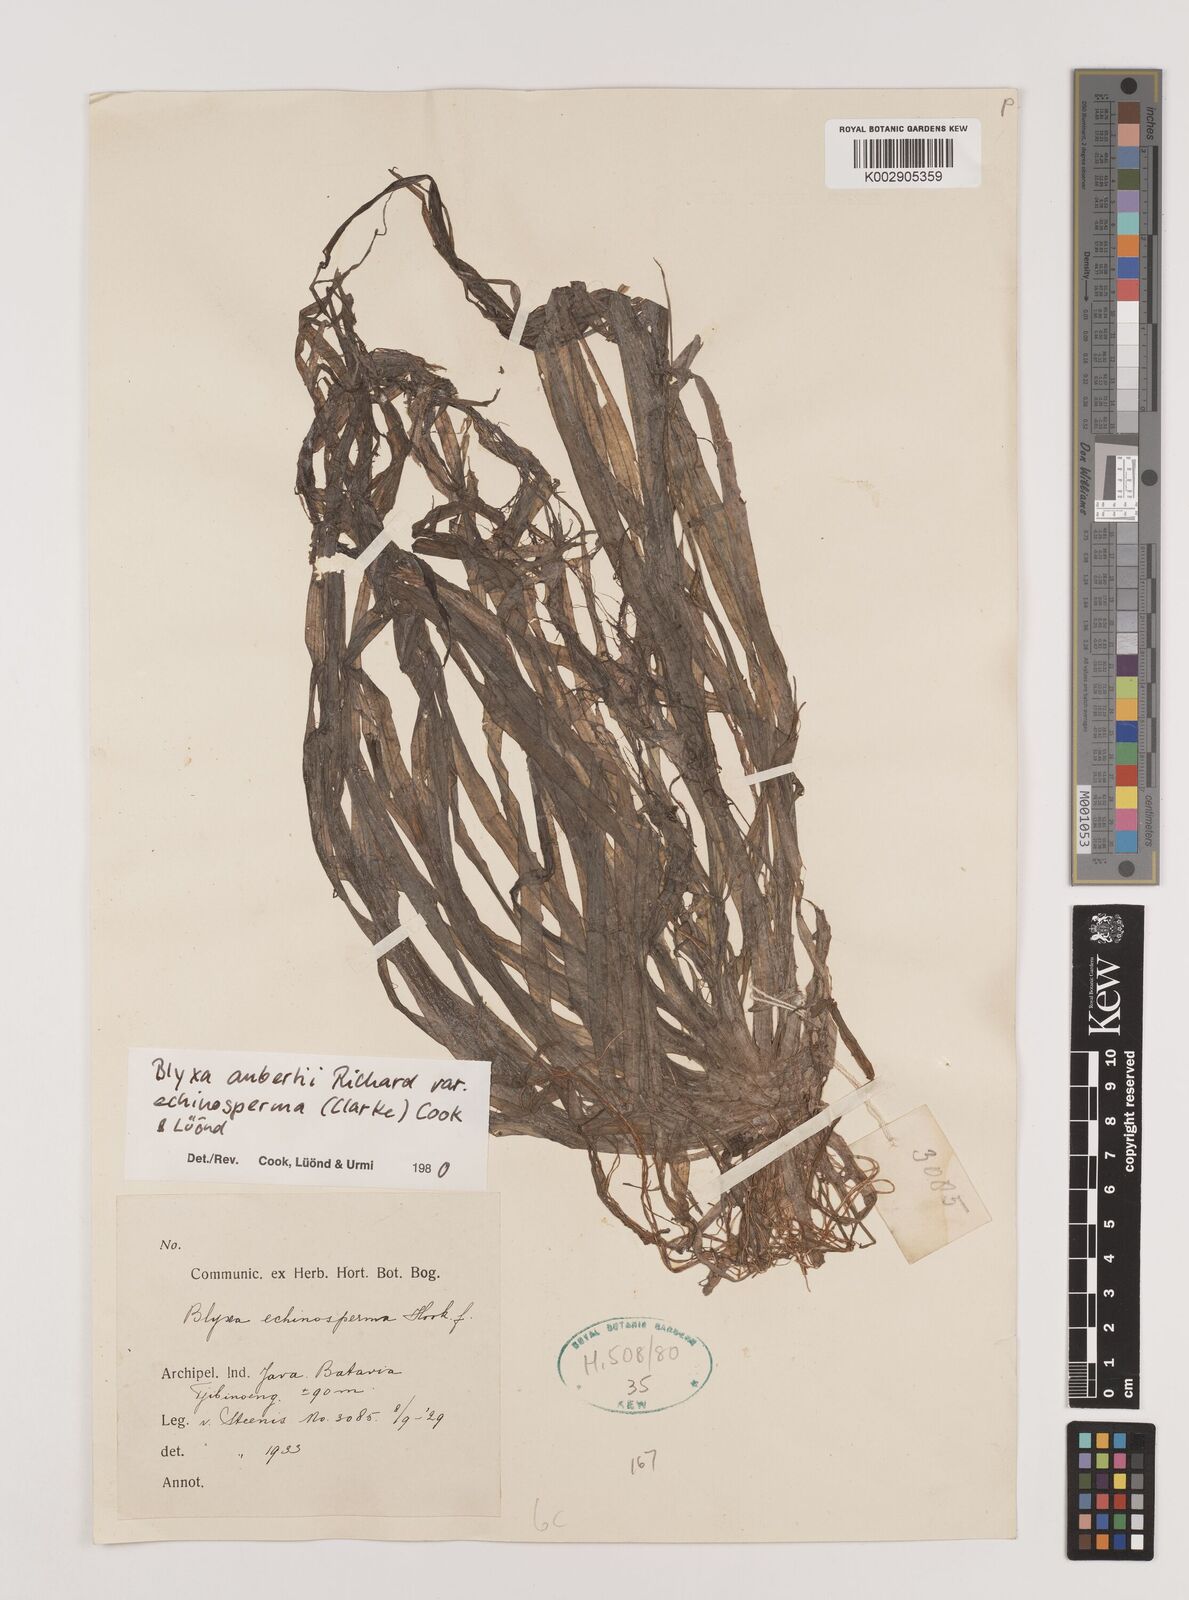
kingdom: Plantae
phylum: Tracheophyta
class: Liliopsida
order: Alismatales
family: Hydrocharitaceae
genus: Blyxa
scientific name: Blyxa echinosperma
